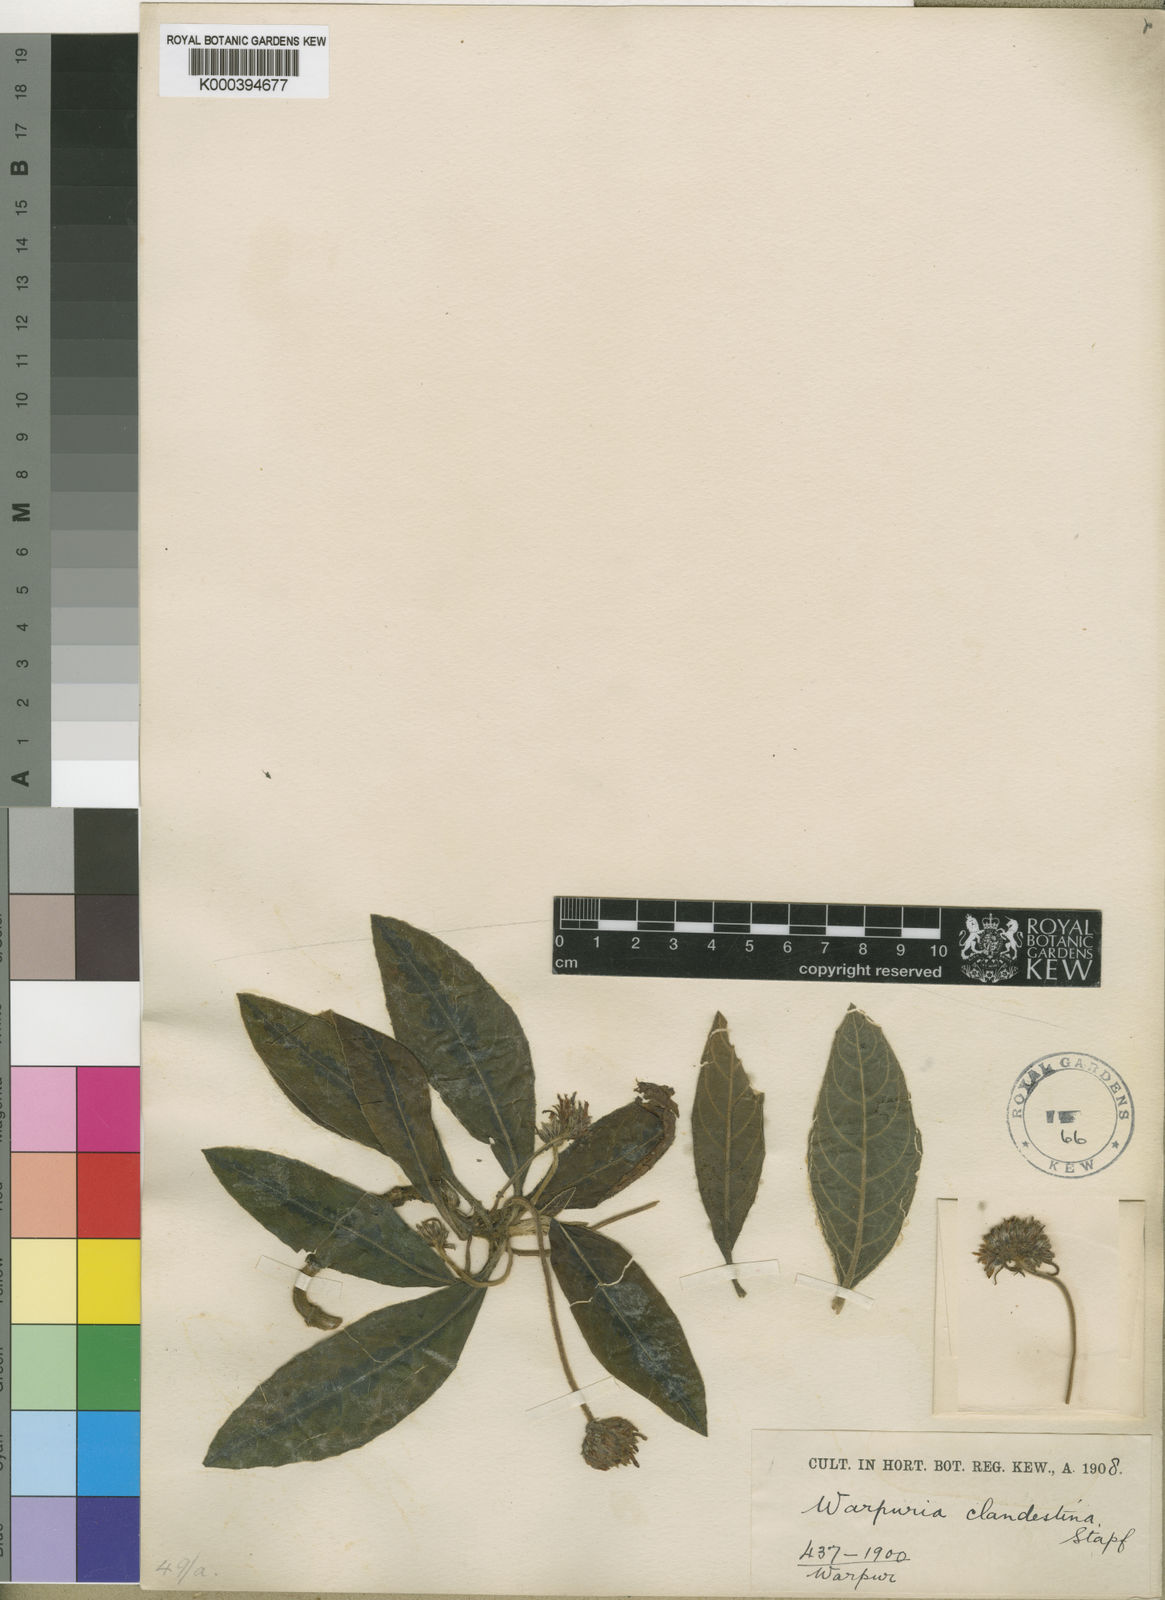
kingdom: Plantae
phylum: Tracheophyta
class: Magnoliopsida
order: Lamiales
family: Acanthaceae
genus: Podorungia
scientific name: Podorungia clandestina
